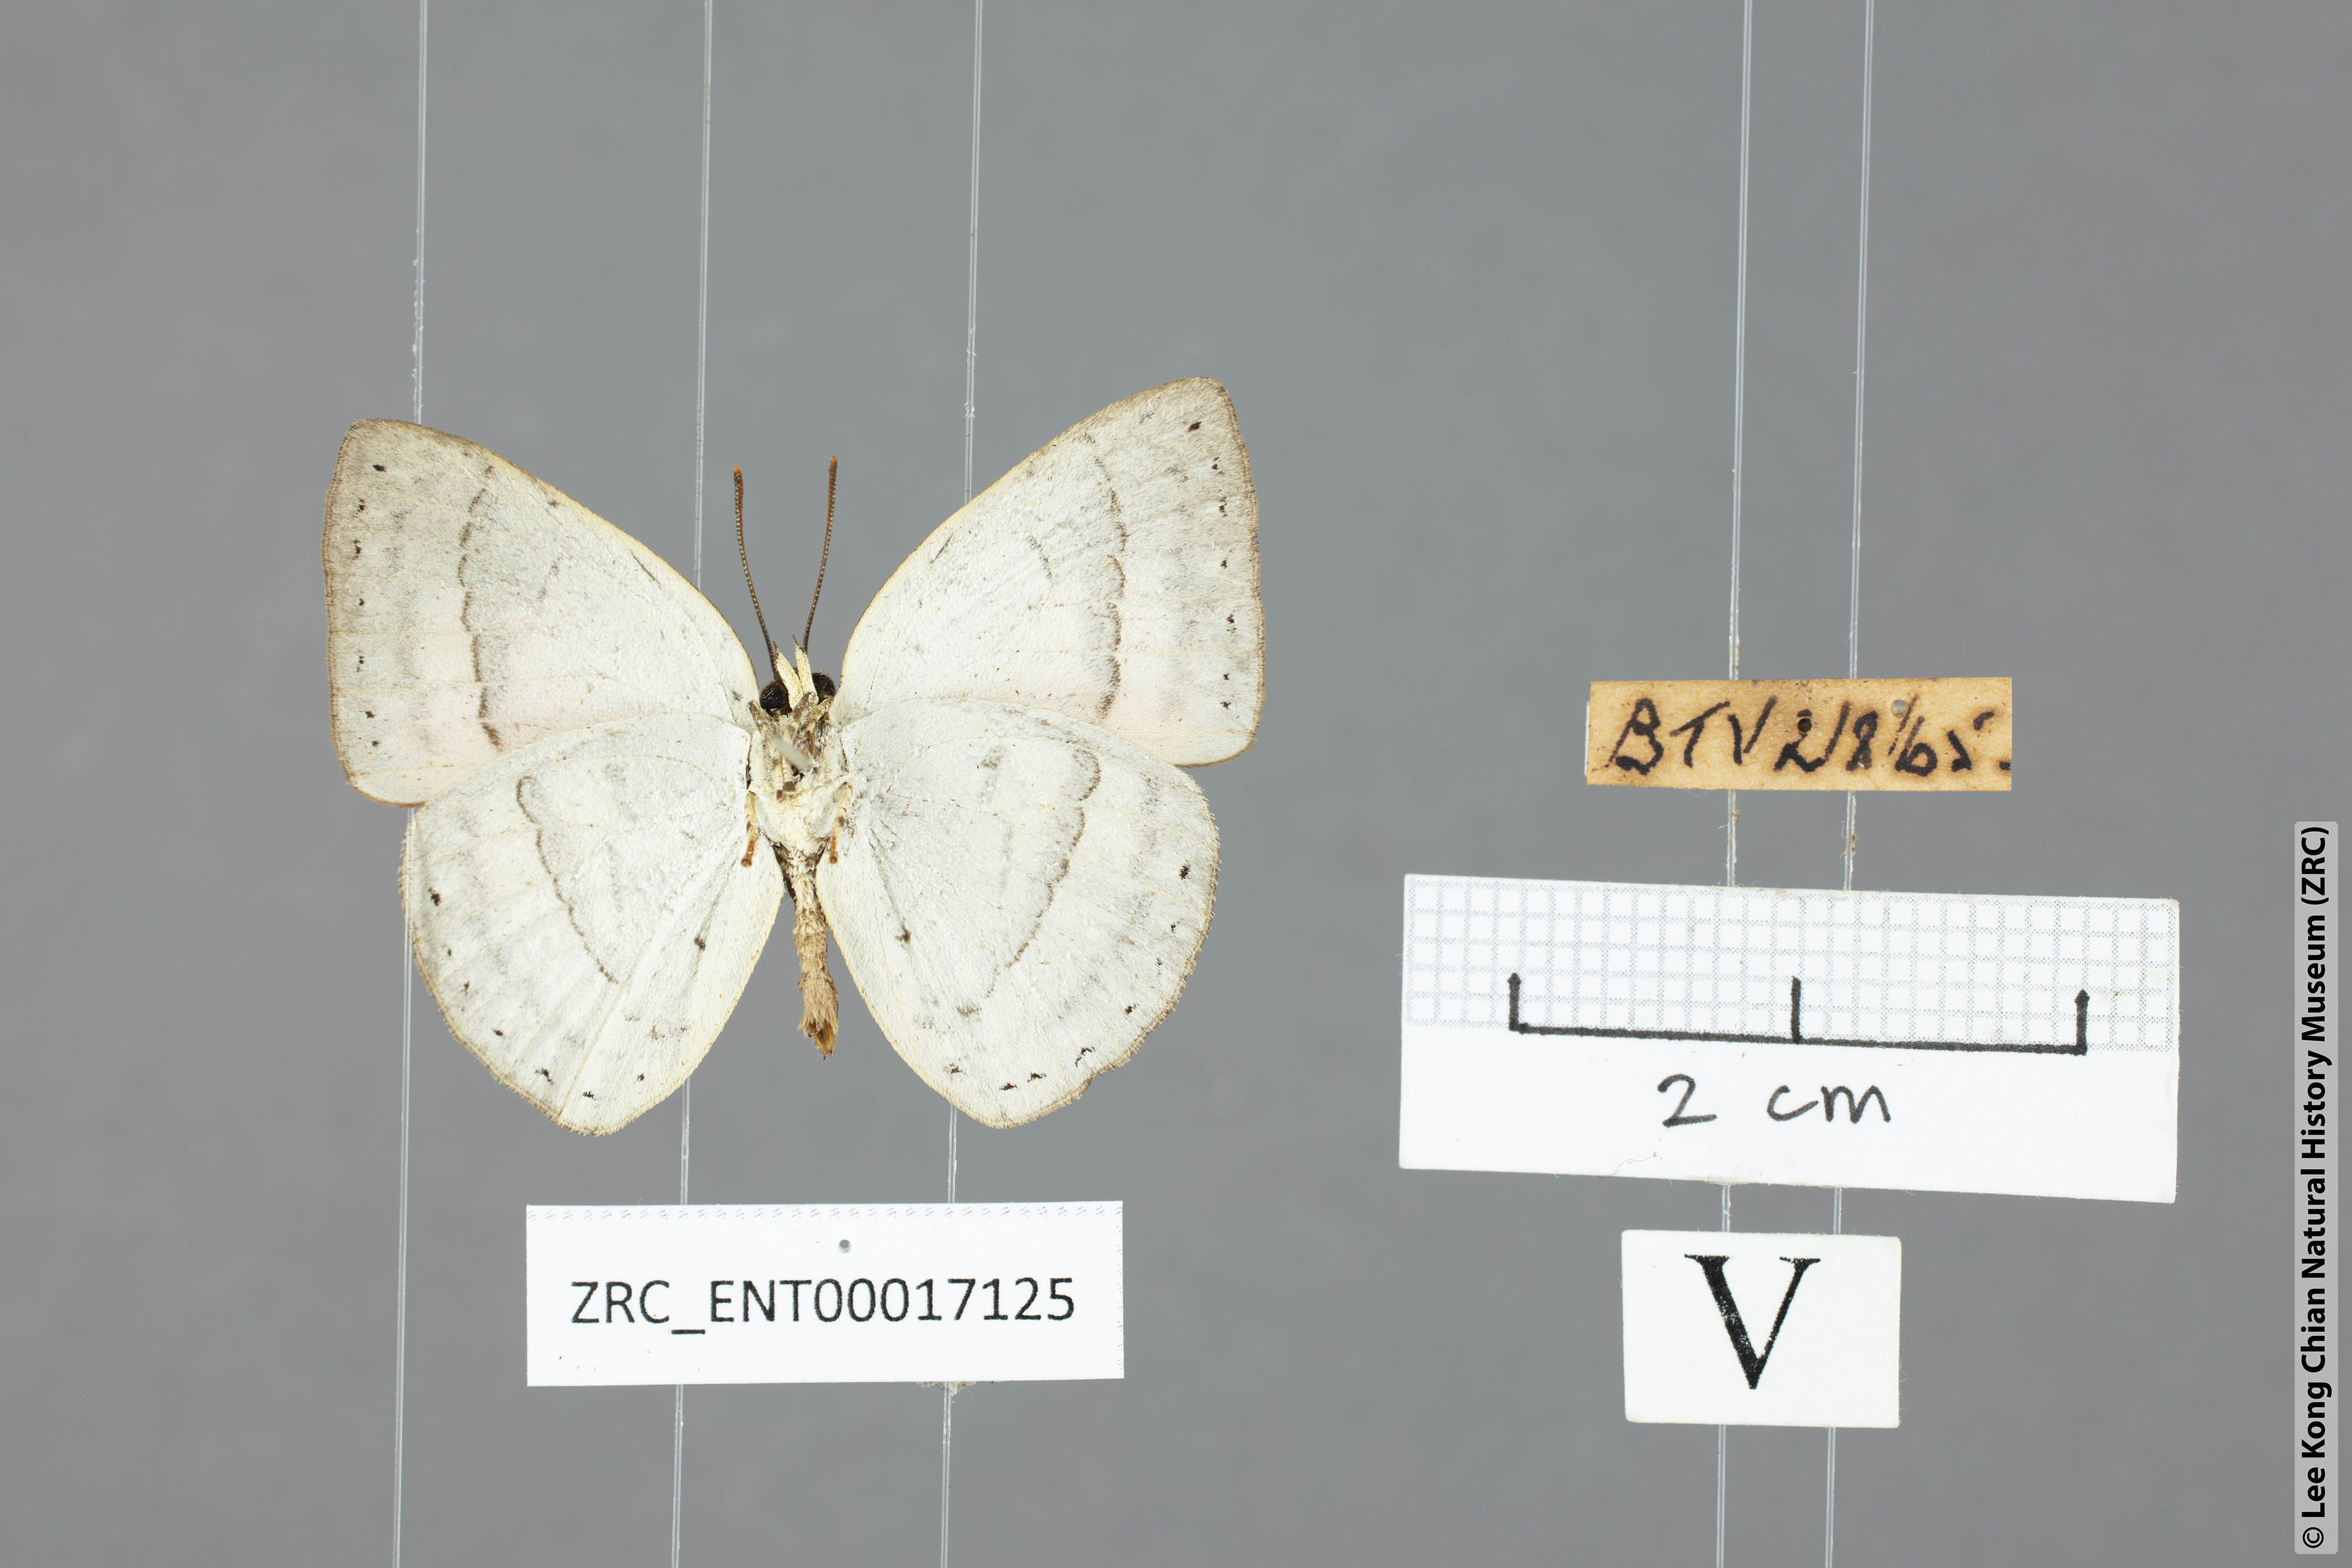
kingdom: Animalia
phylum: Arthropoda
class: Insecta
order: Lepidoptera
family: Lycaenidae
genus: Curetis
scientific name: Curetis freda
